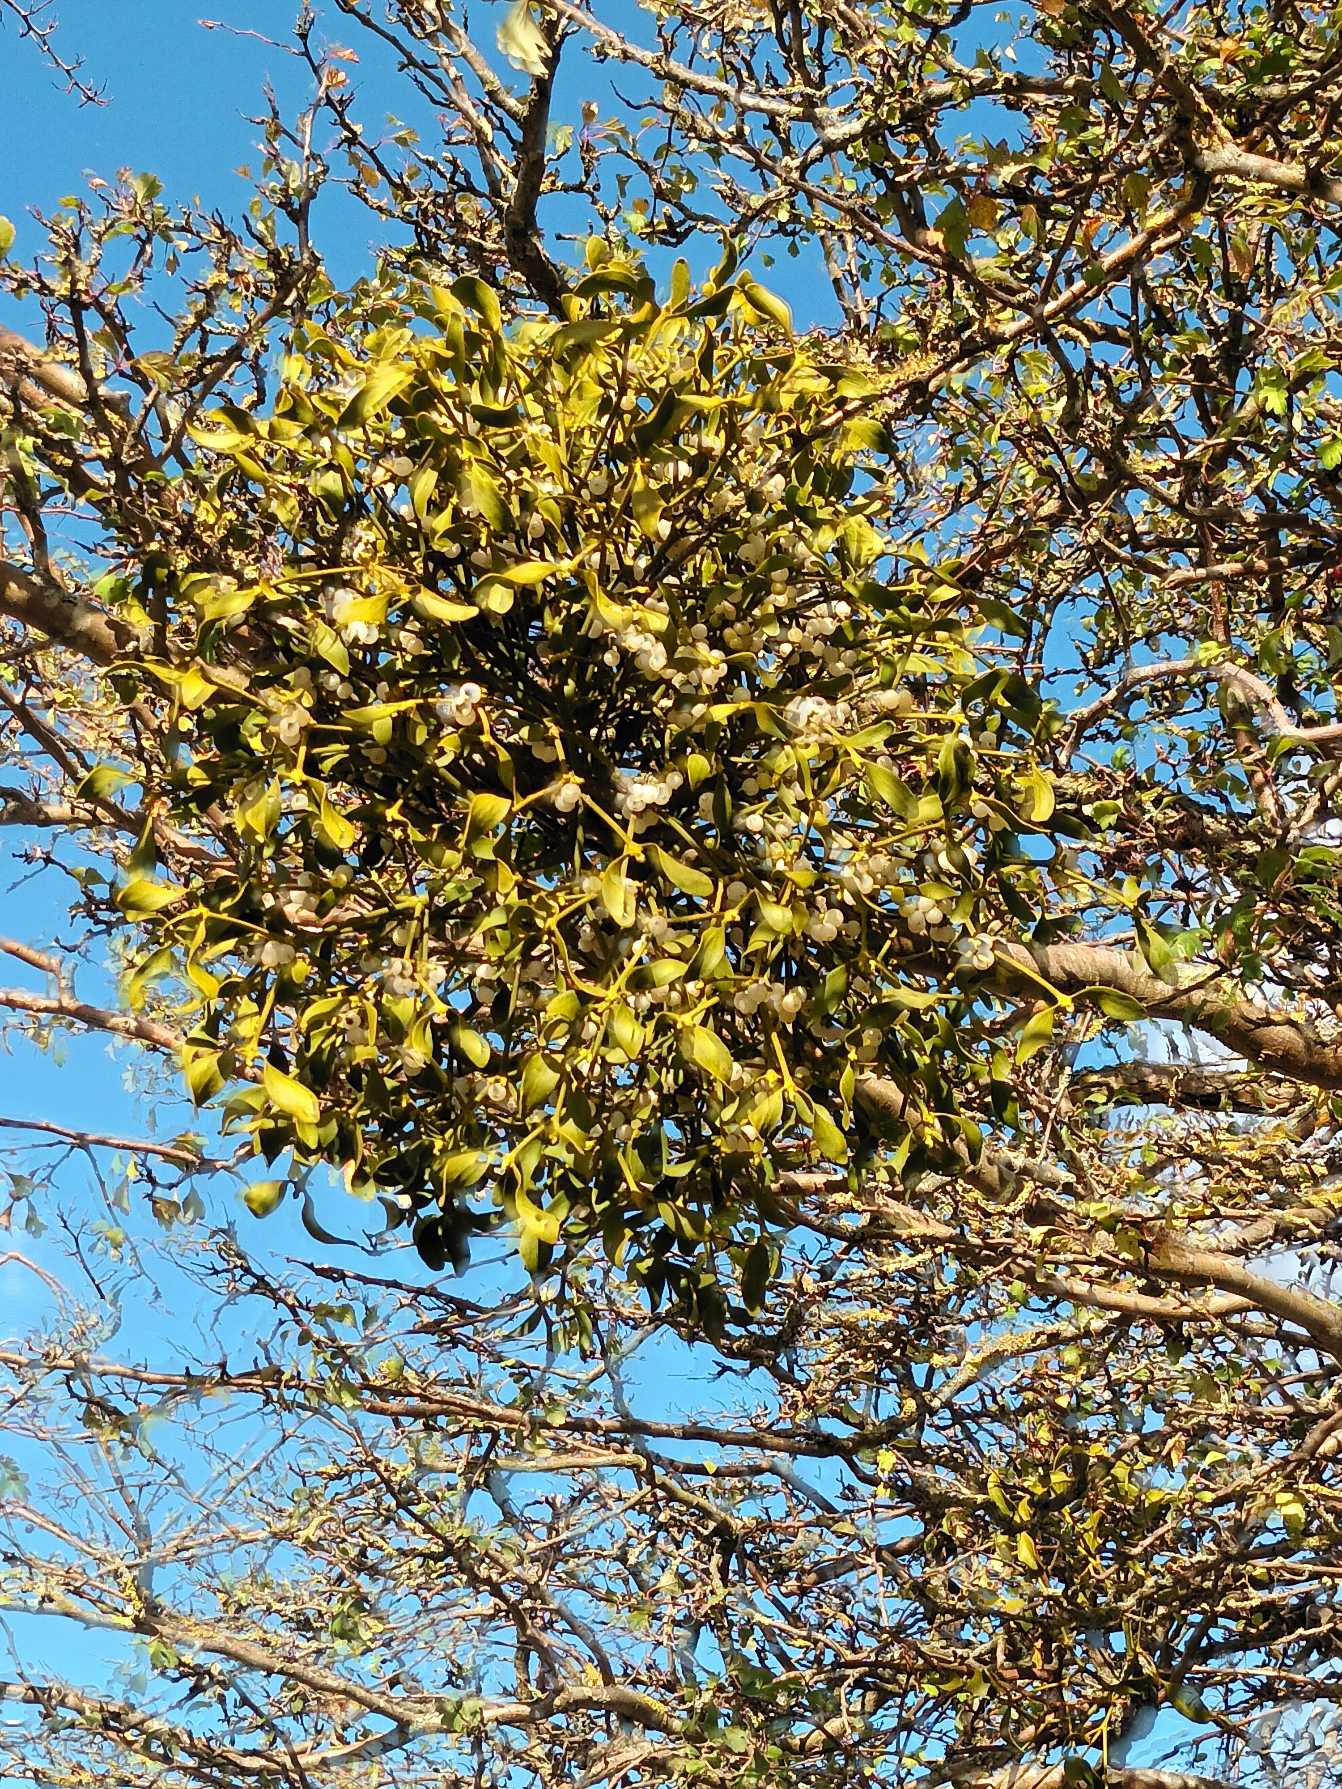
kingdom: Plantae
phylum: Tracheophyta
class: Magnoliopsida
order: Santalales
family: Viscaceae
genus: Viscum
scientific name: Viscum album
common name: Mistelten
